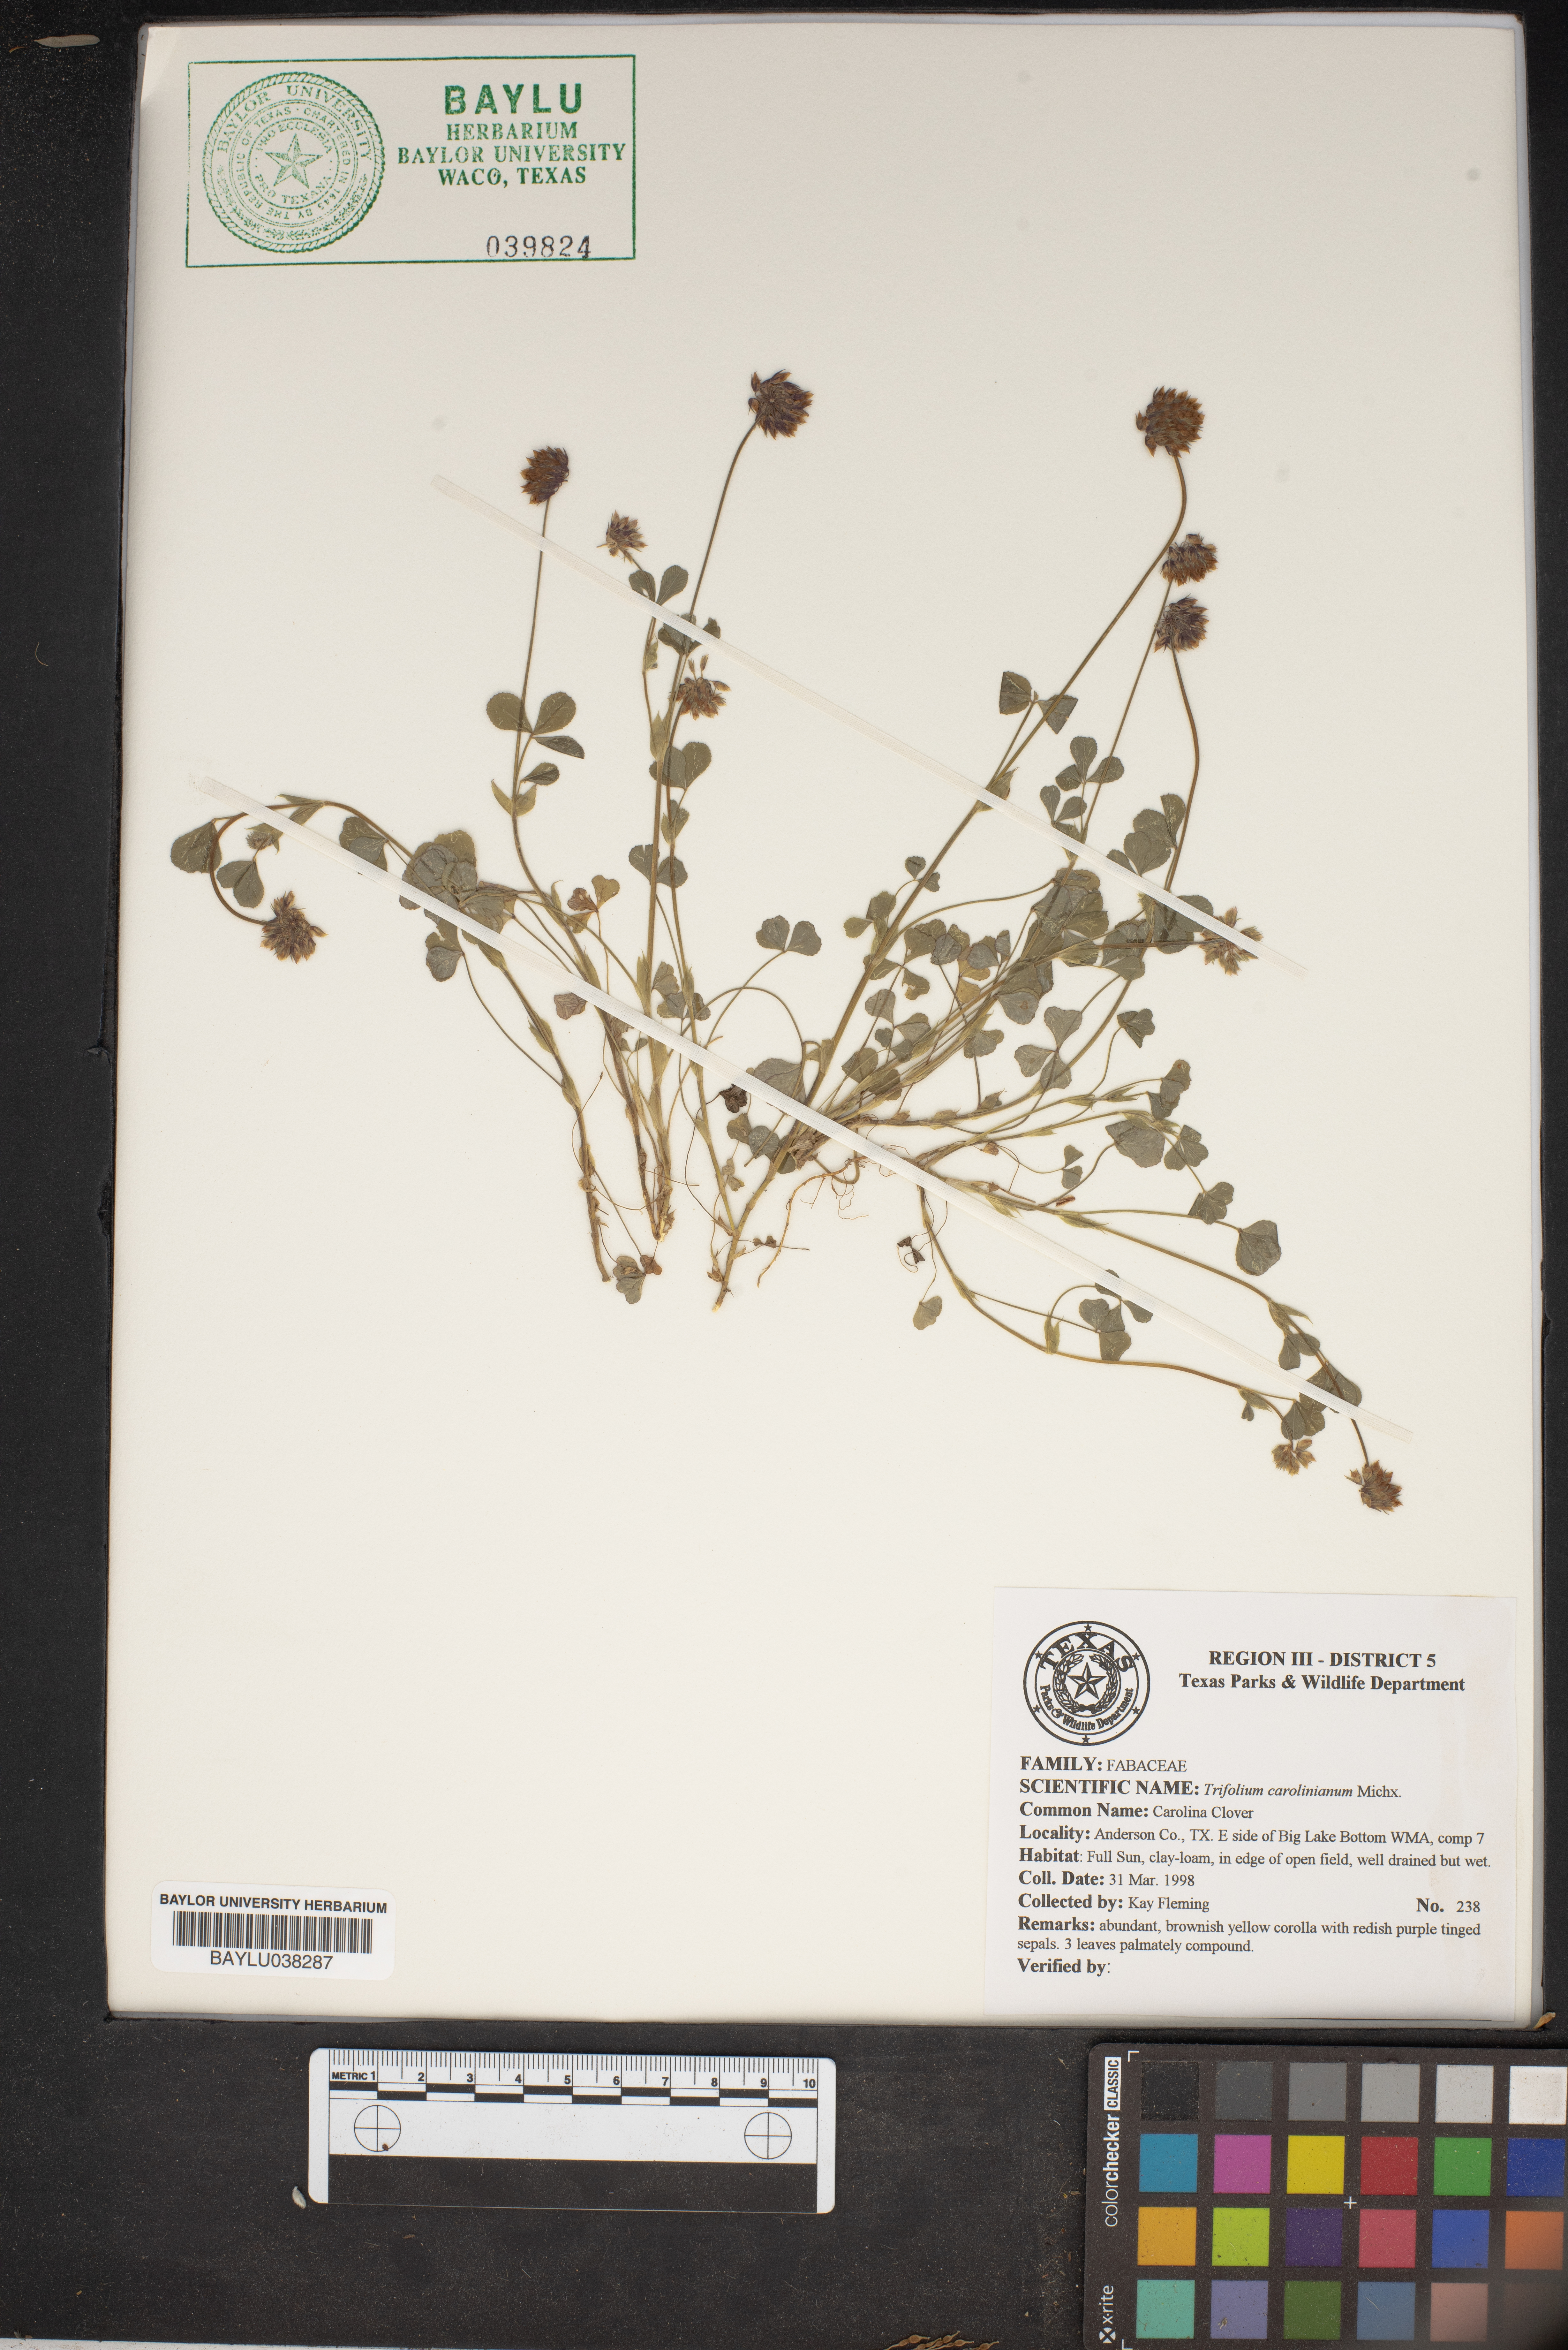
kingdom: Plantae
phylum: Tracheophyta
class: Magnoliopsida
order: Fabales
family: Fabaceae
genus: Trifolium
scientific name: Trifolium carolinianum
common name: Wild white clover
